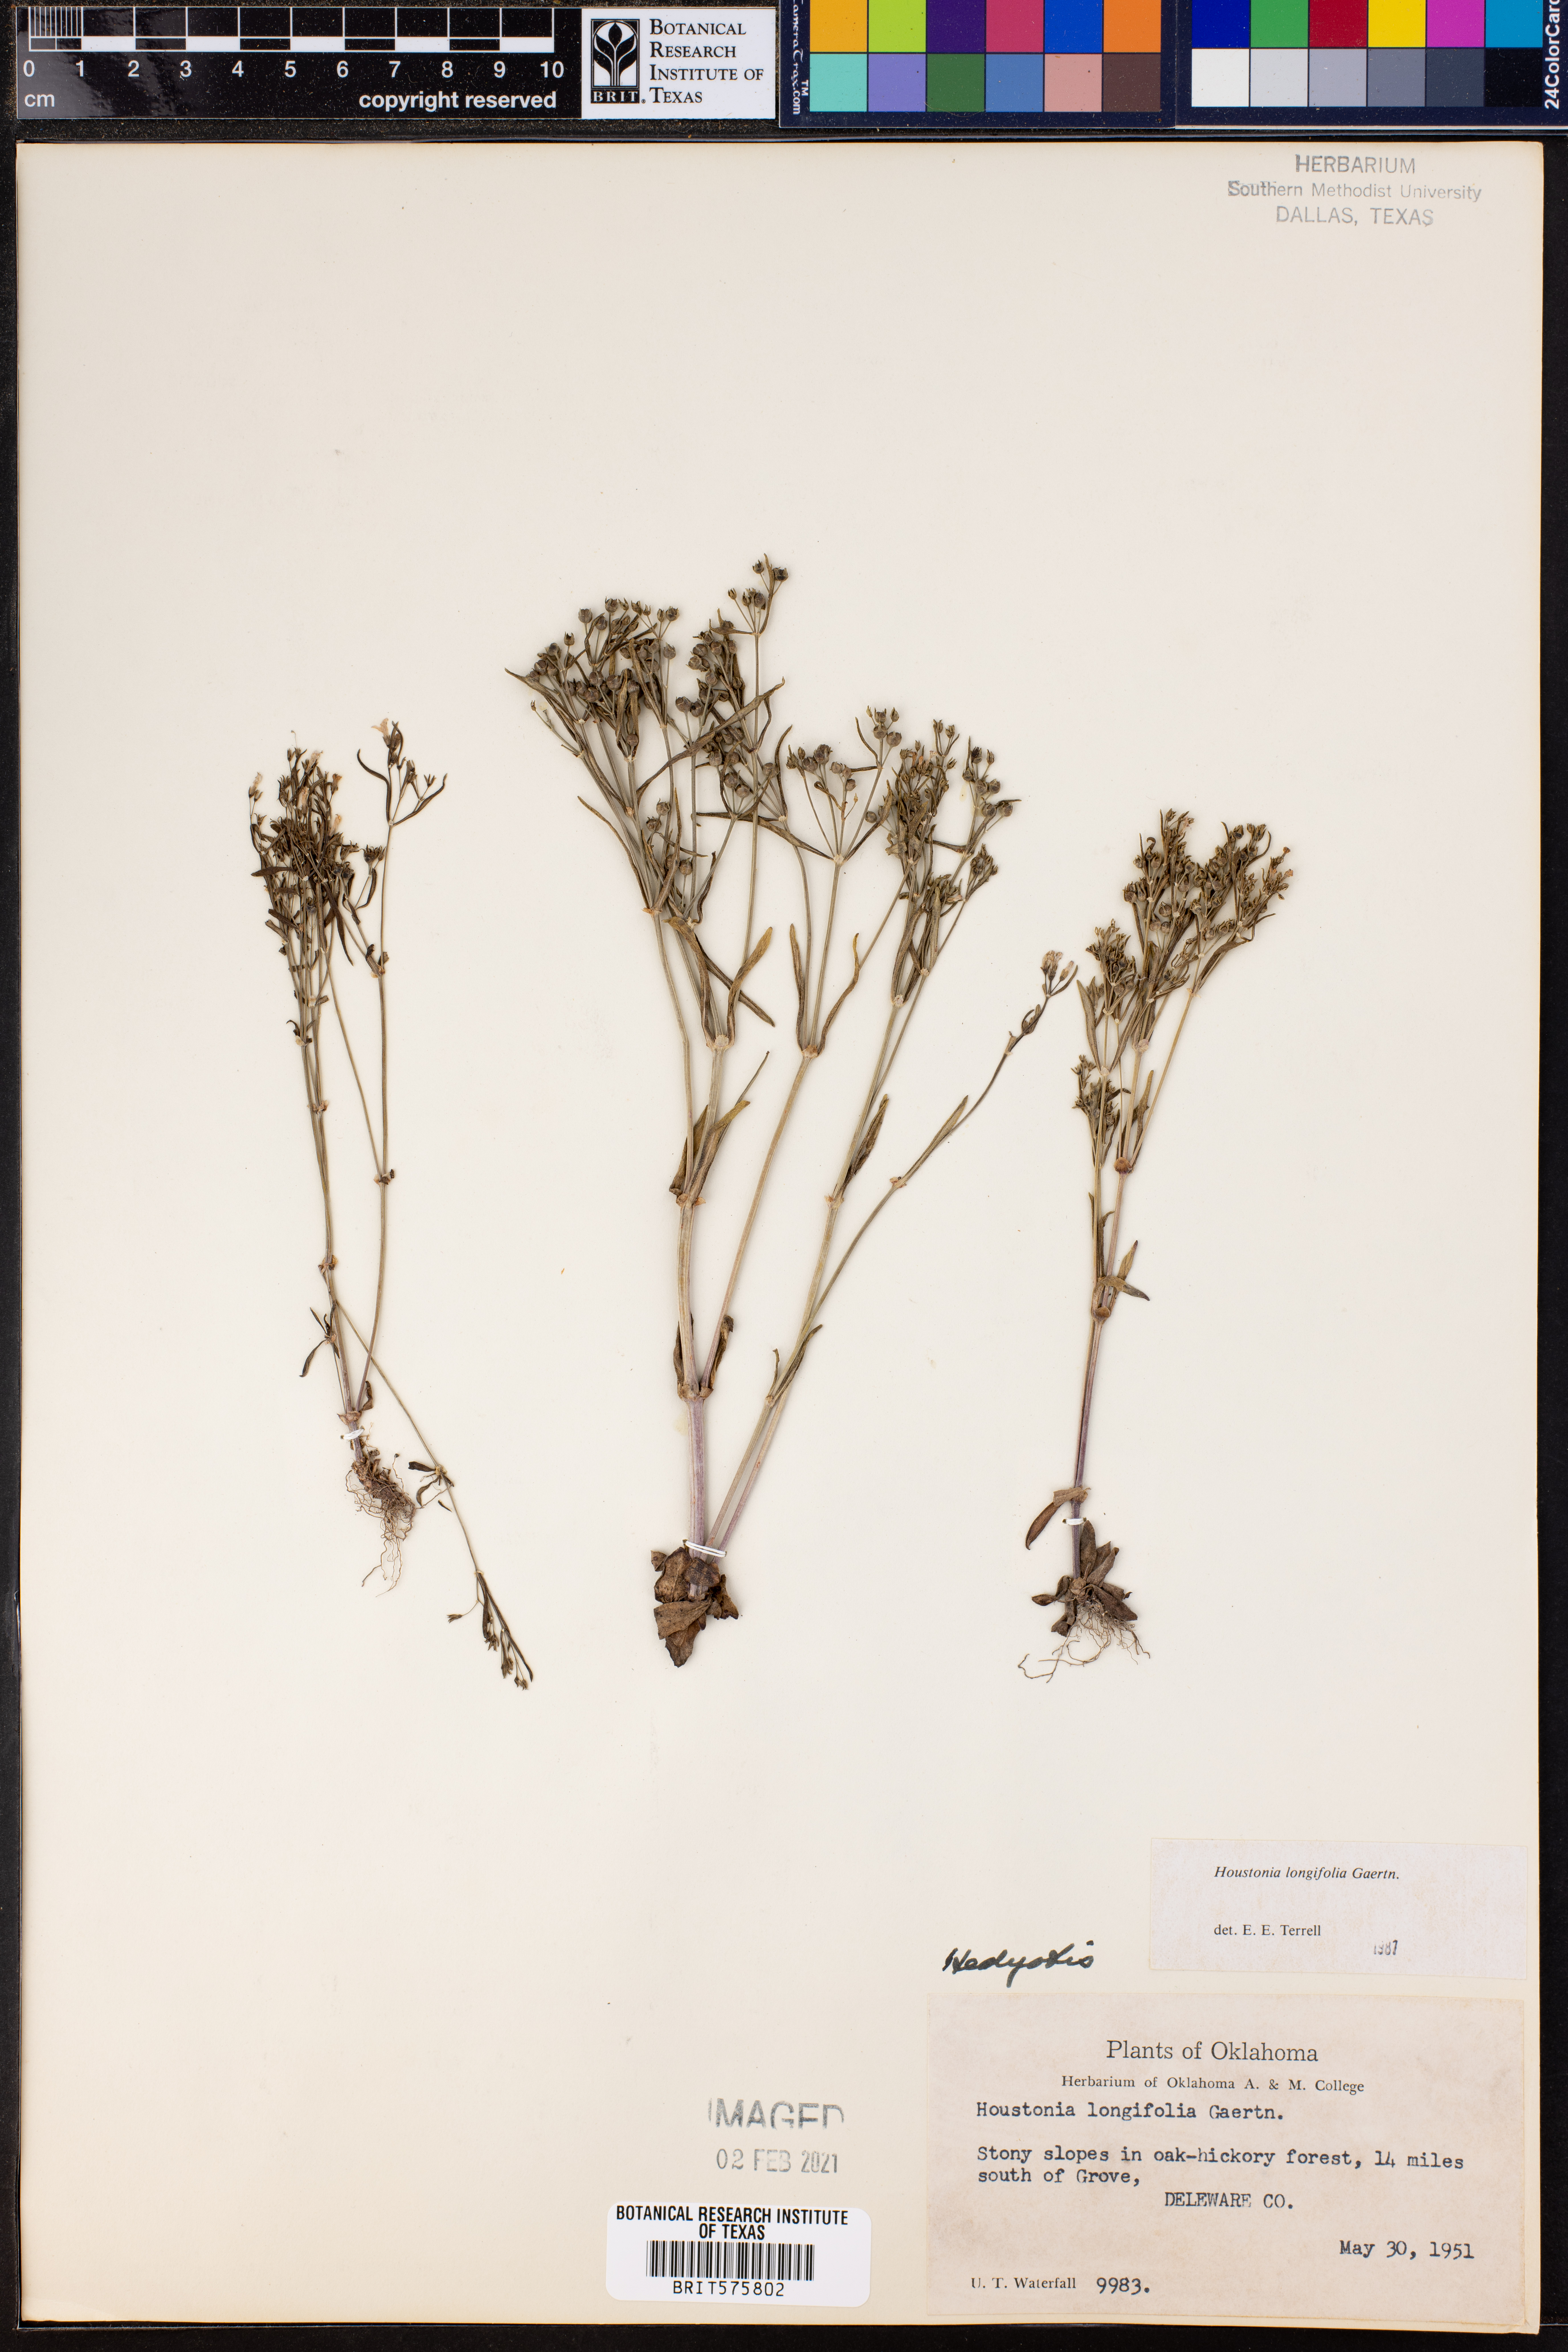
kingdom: Plantae
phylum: Tracheophyta
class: Magnoliopsida
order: Gentianales
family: Rubiaceae
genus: Houstonia
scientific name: Houstonia longifolia
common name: Long-leaved bluets
